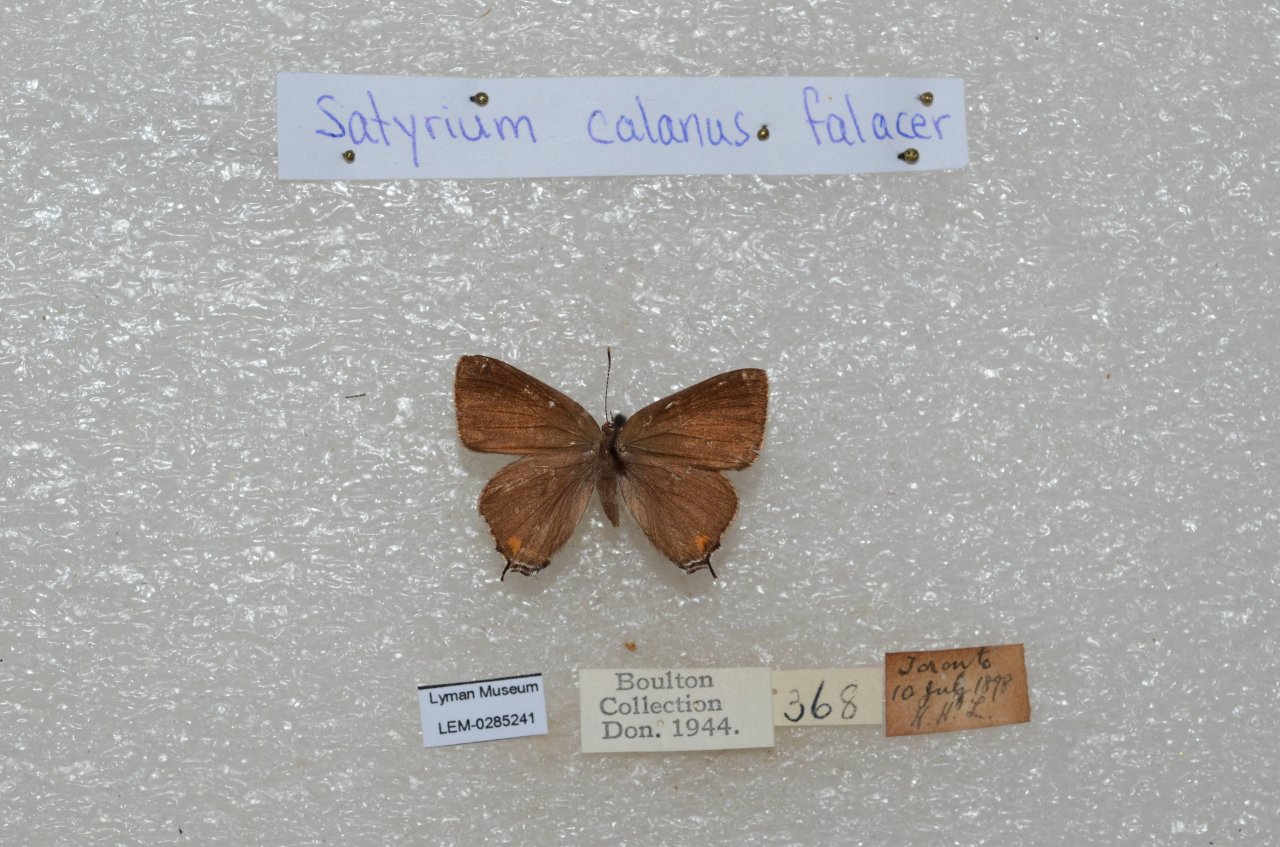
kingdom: Animalia
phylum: Arthropoda
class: Insecta
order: Lepidoptera
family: Lycaenidae
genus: Satyrium
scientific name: Satyrium calanus
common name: Banded Hairstreak
